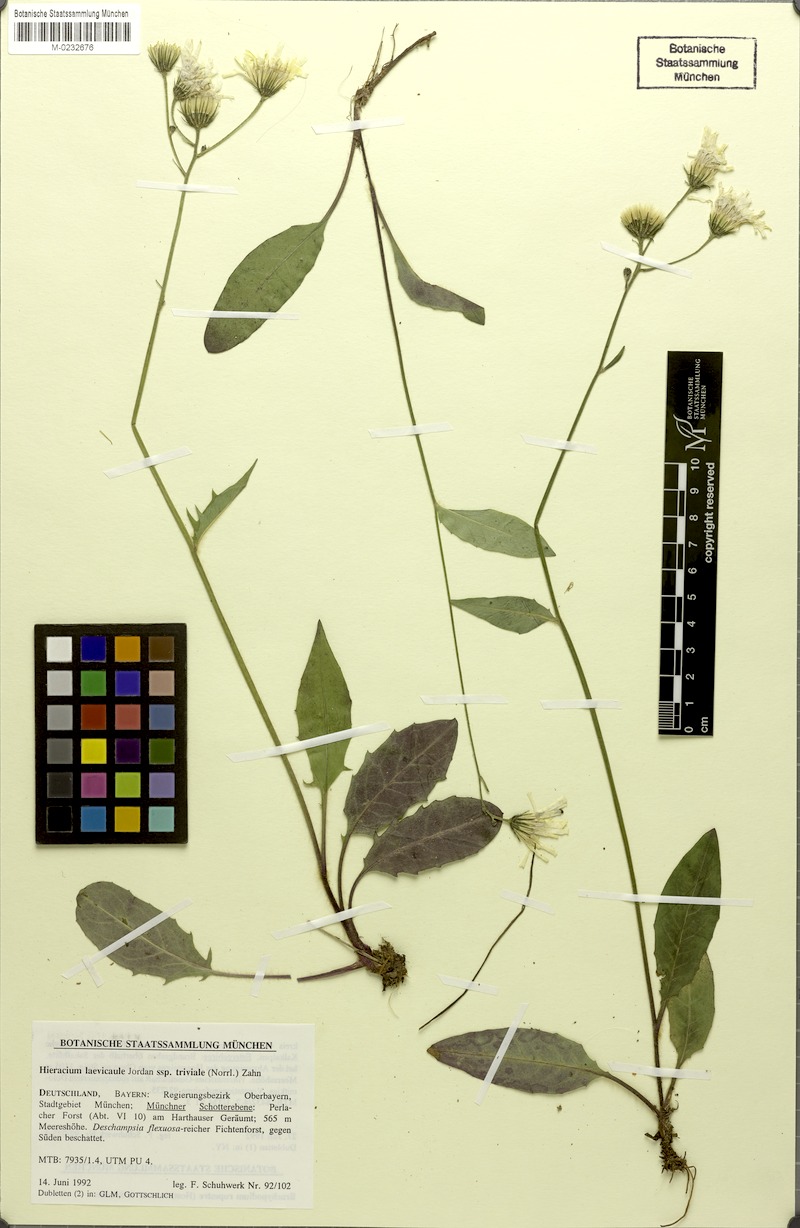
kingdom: Plantae
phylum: Tracheophyta
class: Magnoliopsida
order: Asterales
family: Asteraceae
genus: Hieracium
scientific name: Hieracium levicaule
